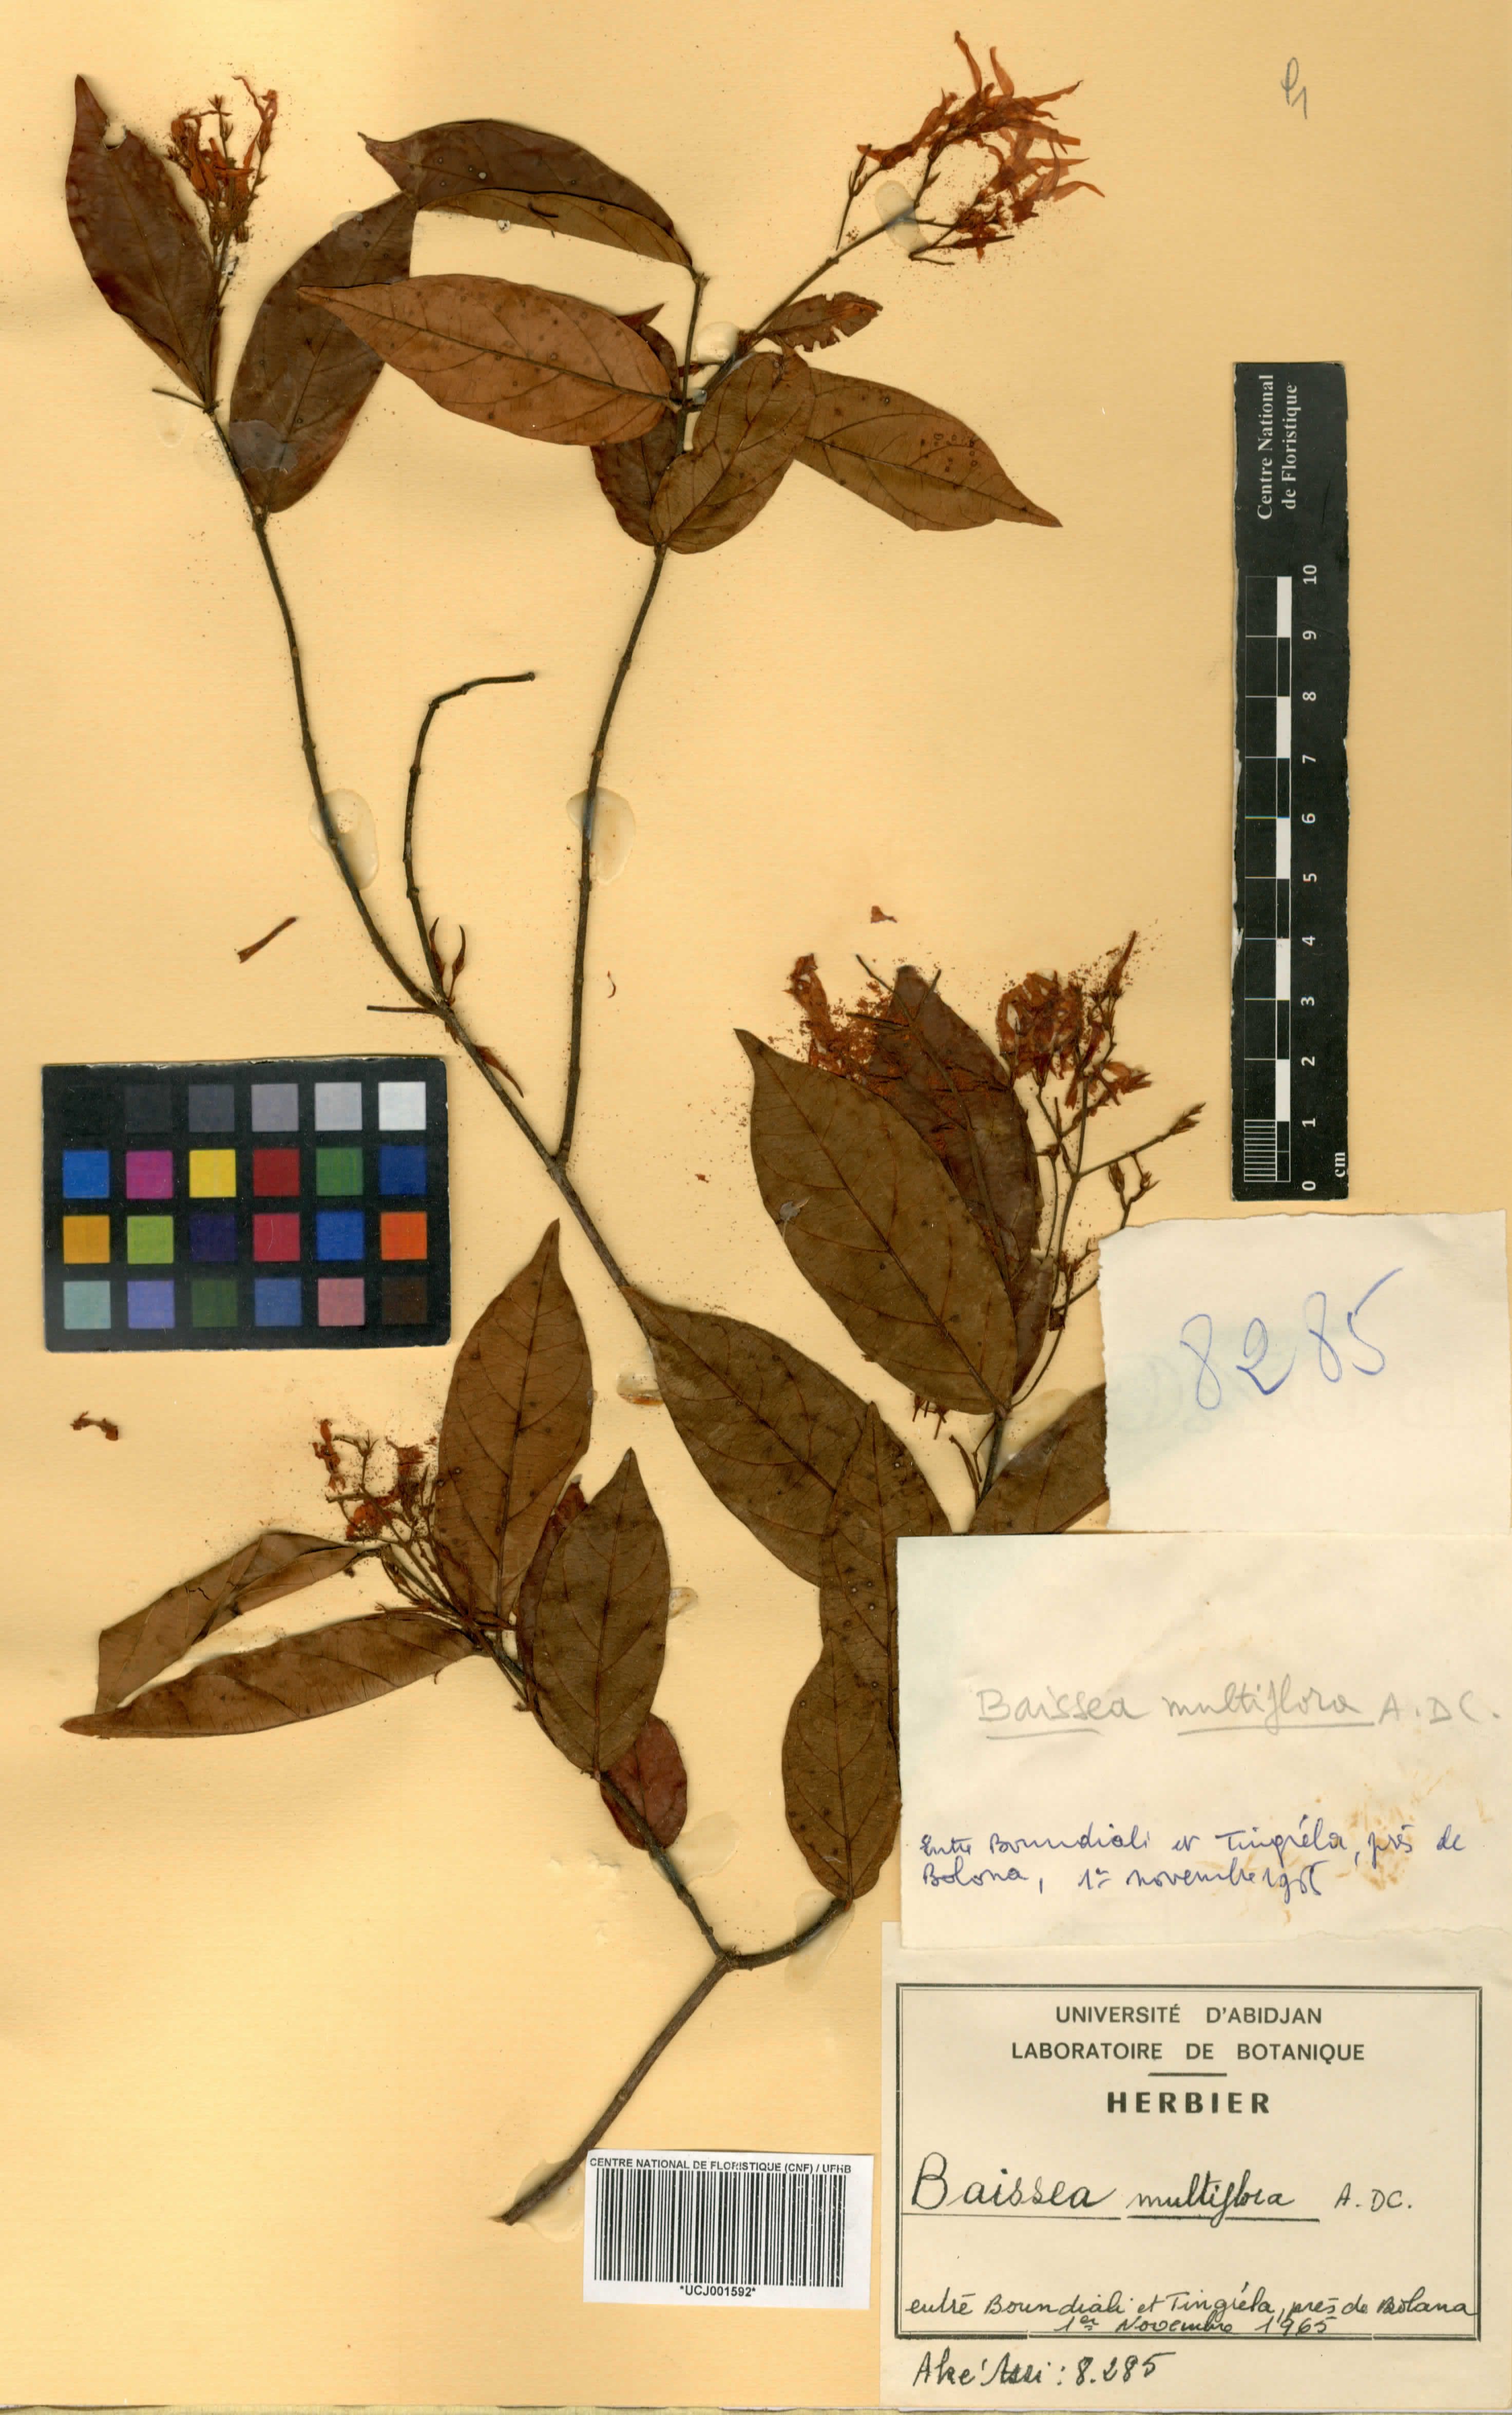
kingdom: Plantae
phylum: Tracheophyta
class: Magnoliopsida
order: Gentianales
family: Apocynaceae
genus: Baissea
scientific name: Baissea multiflora
